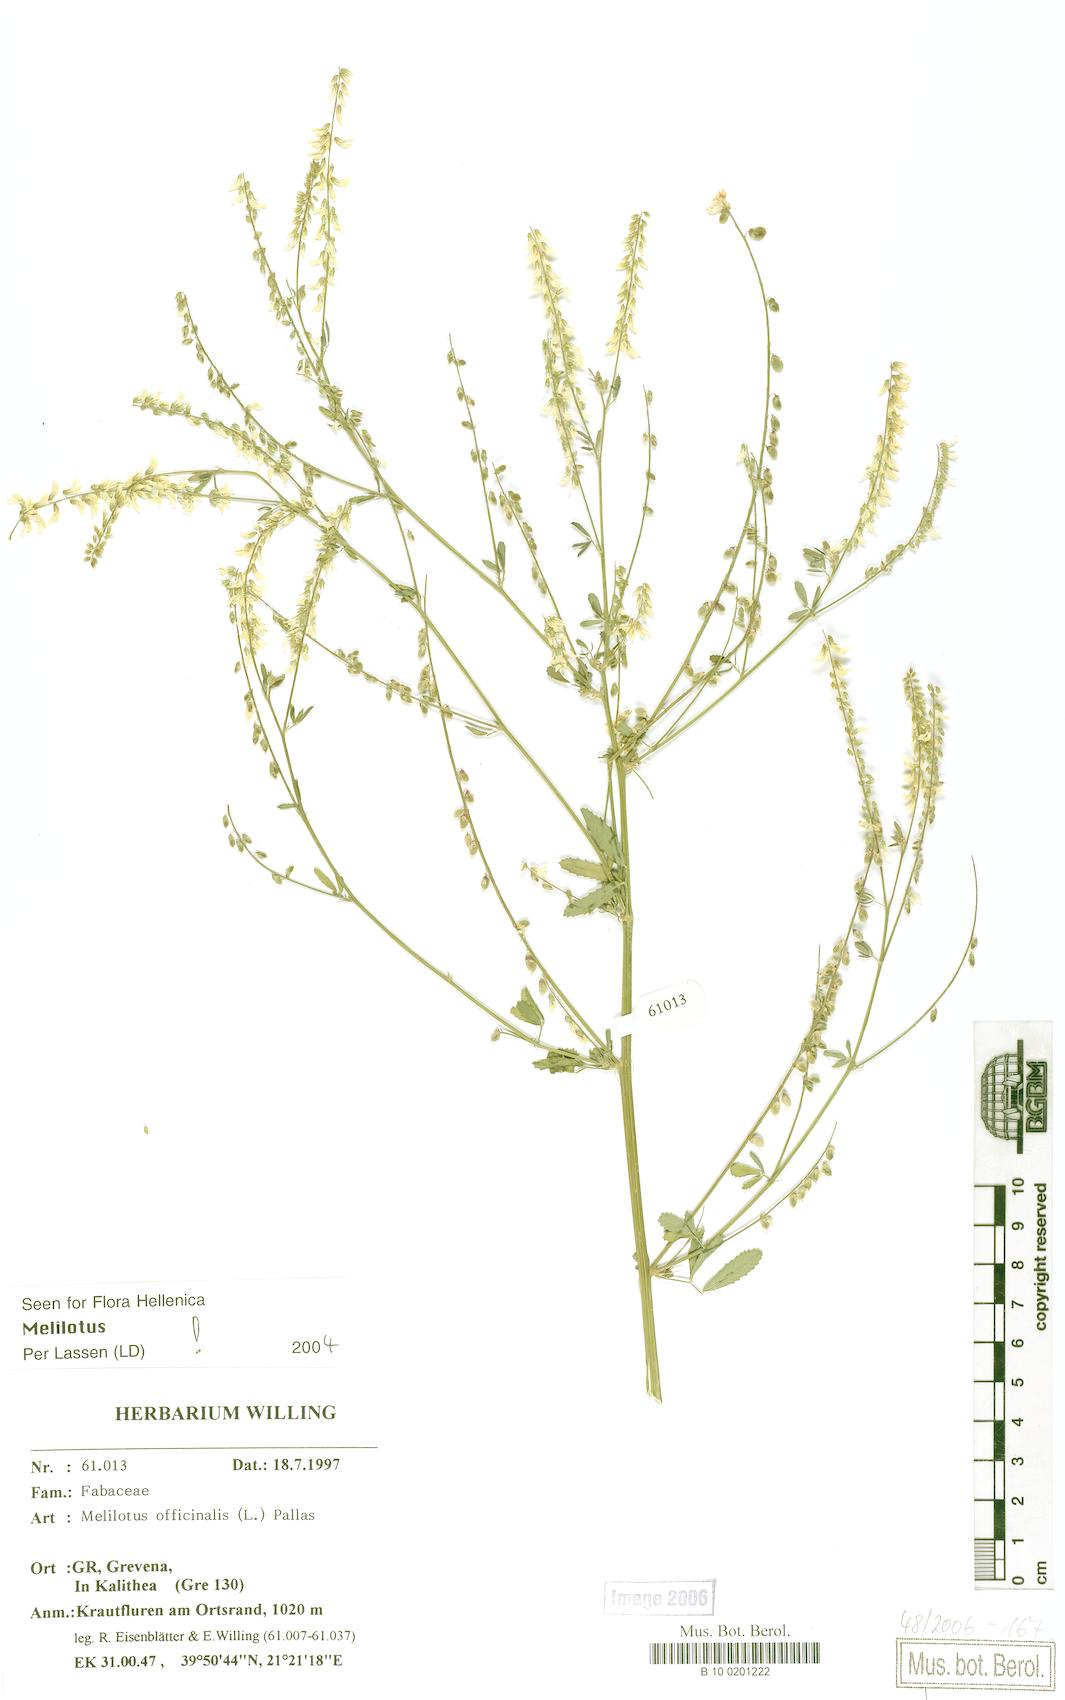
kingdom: Plantae
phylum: Tracheophyta
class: Magnoliopsida
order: Fabales
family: Fabaceae
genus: Melilotus
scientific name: Melilotus officinalis
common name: Sweetclover
